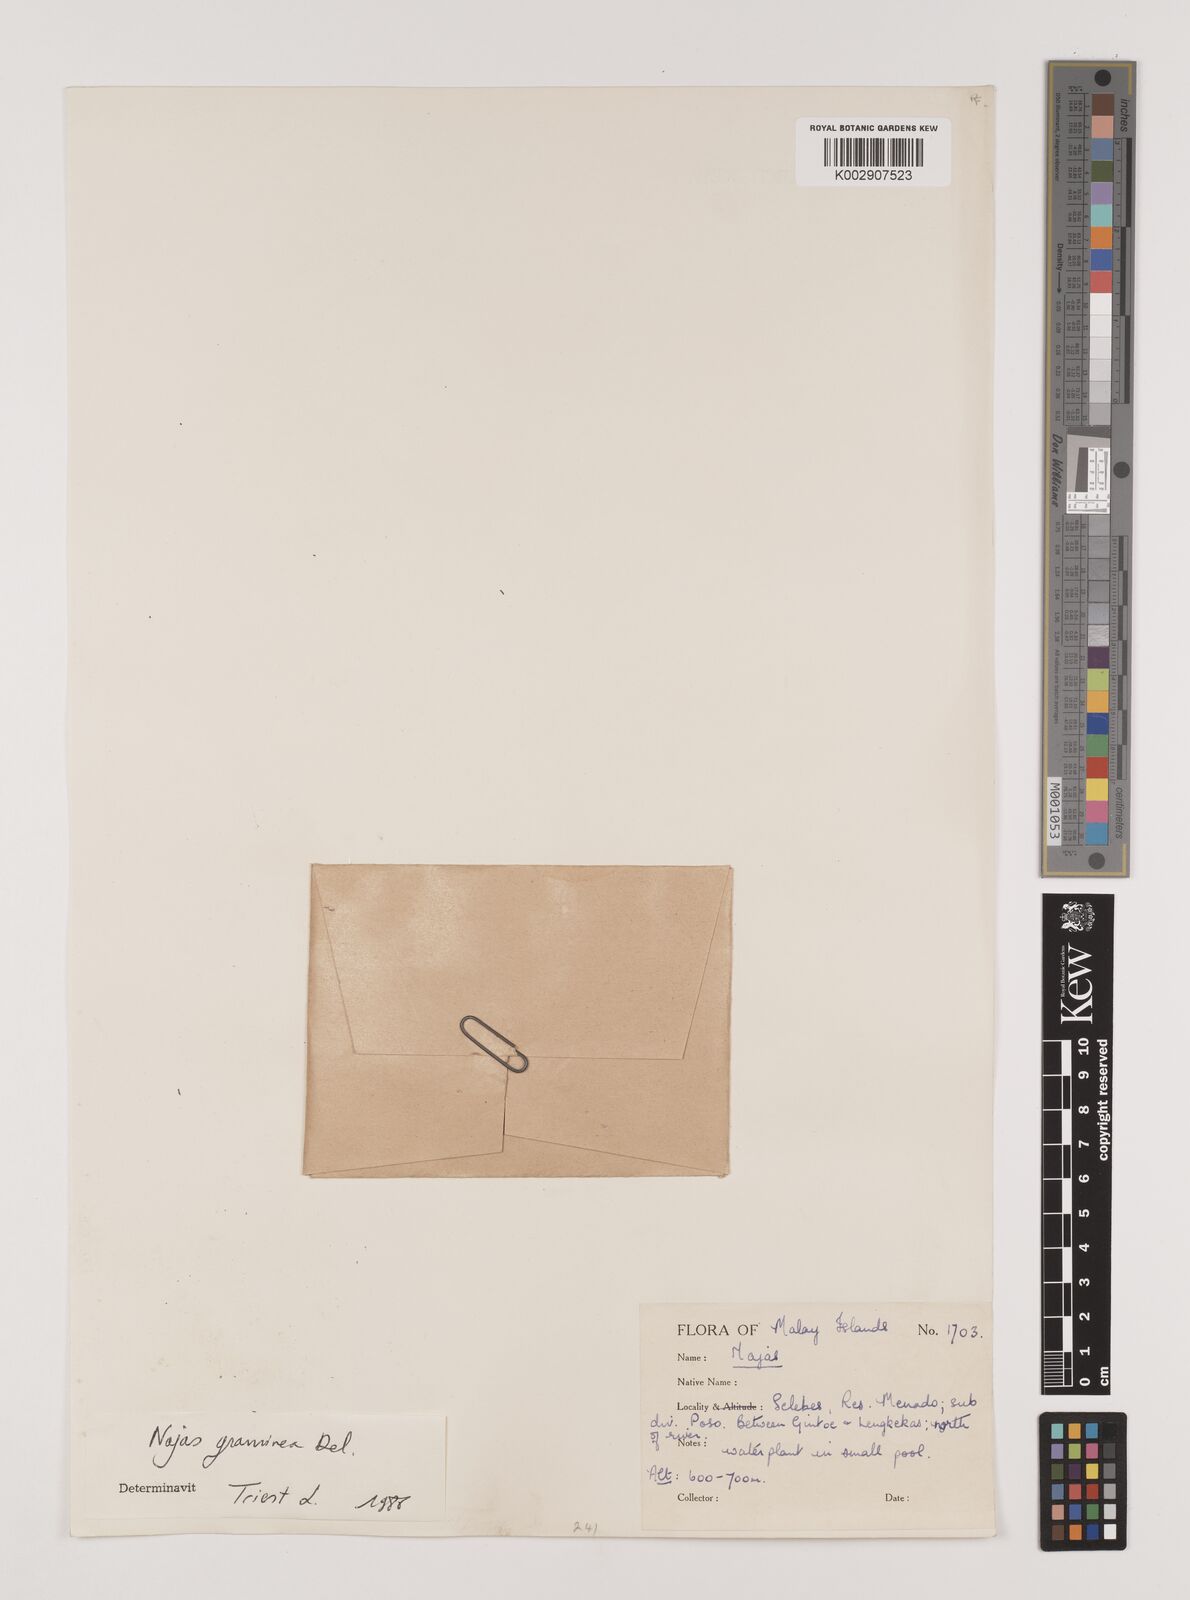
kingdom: Plantae
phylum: Tracheophyta
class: Liliopsida
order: Alismatales
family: Hydrocharitaceae
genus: Najas
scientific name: Najas graminea
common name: Ricefield waternymph
